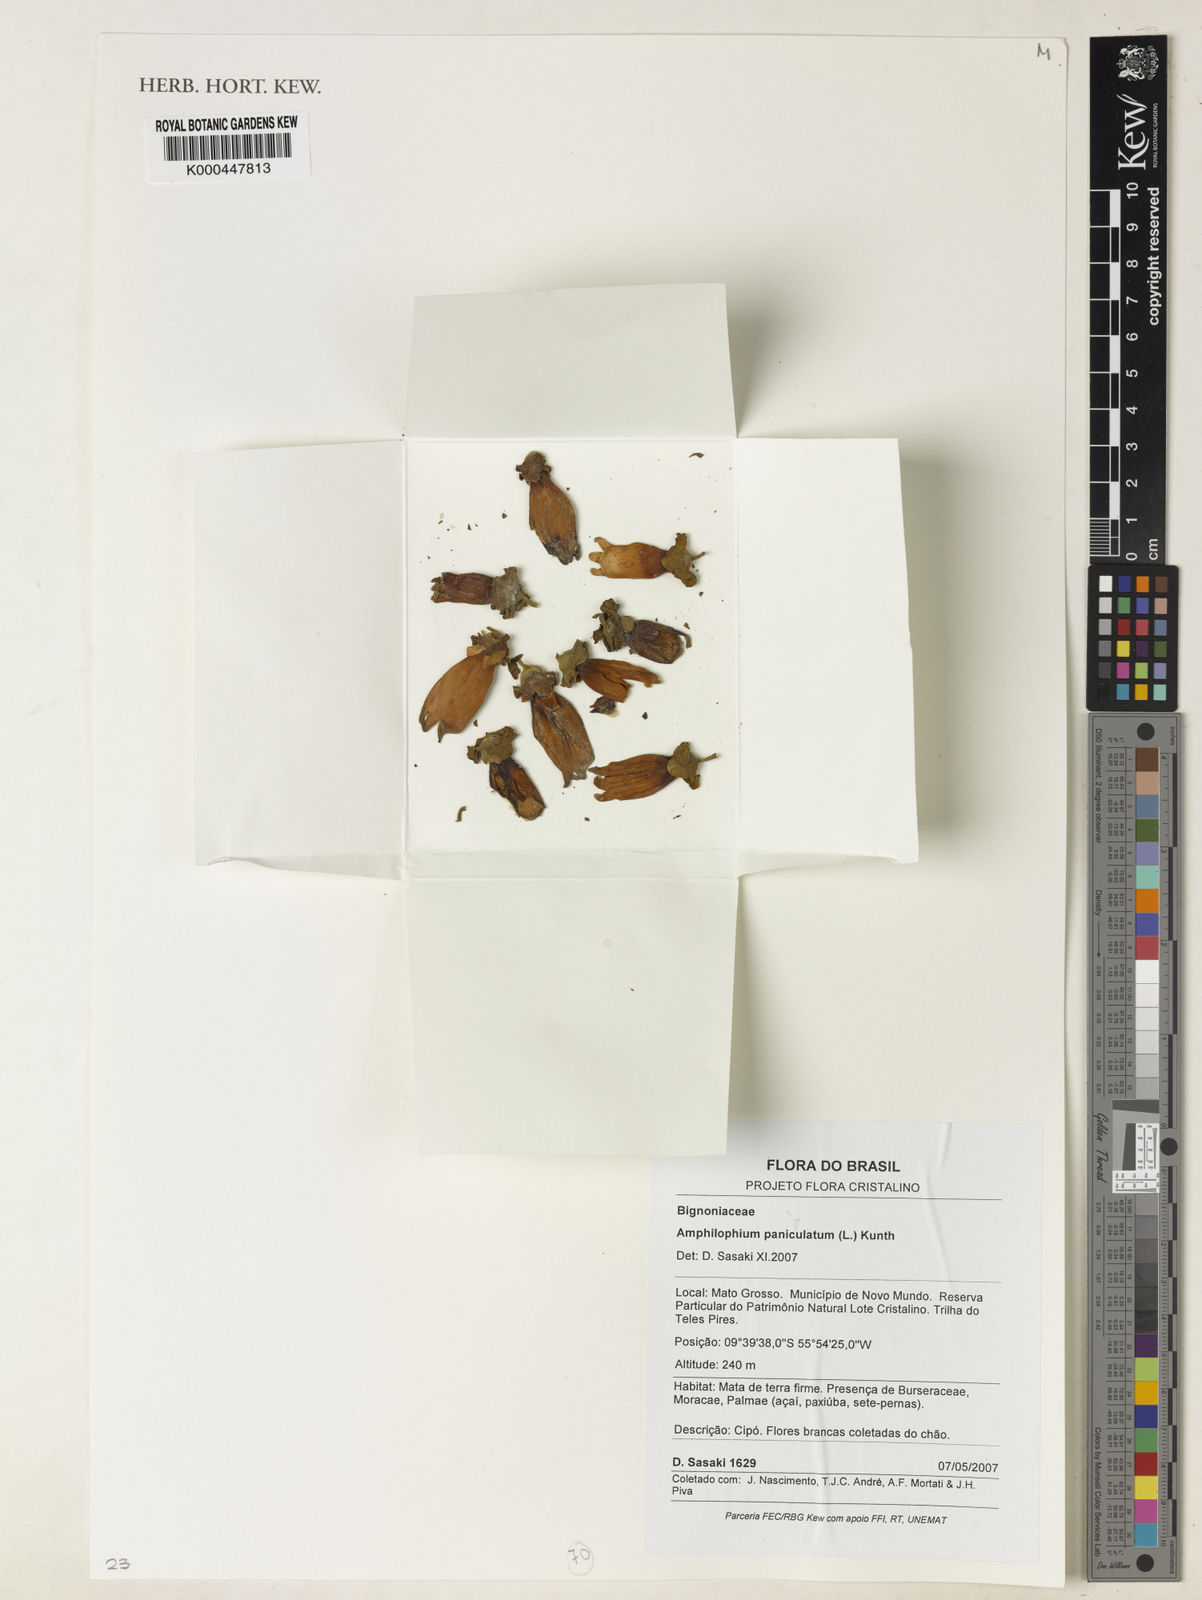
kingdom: Plantae
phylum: Tracheophyta
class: Magnoliopsida
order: Lamiales
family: Bignoniaceae
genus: Amphilophium
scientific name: Amphilophium paniculatum
